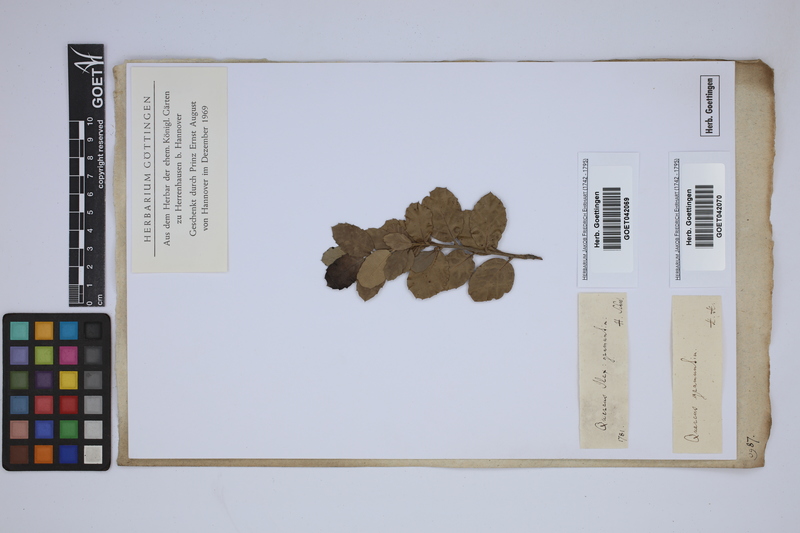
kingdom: Plantae
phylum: Tracheophyta
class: Magnoliopsida
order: Fagales
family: Fagaceae
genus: Quercus
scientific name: Quercus ilex
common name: Evergreen oak
